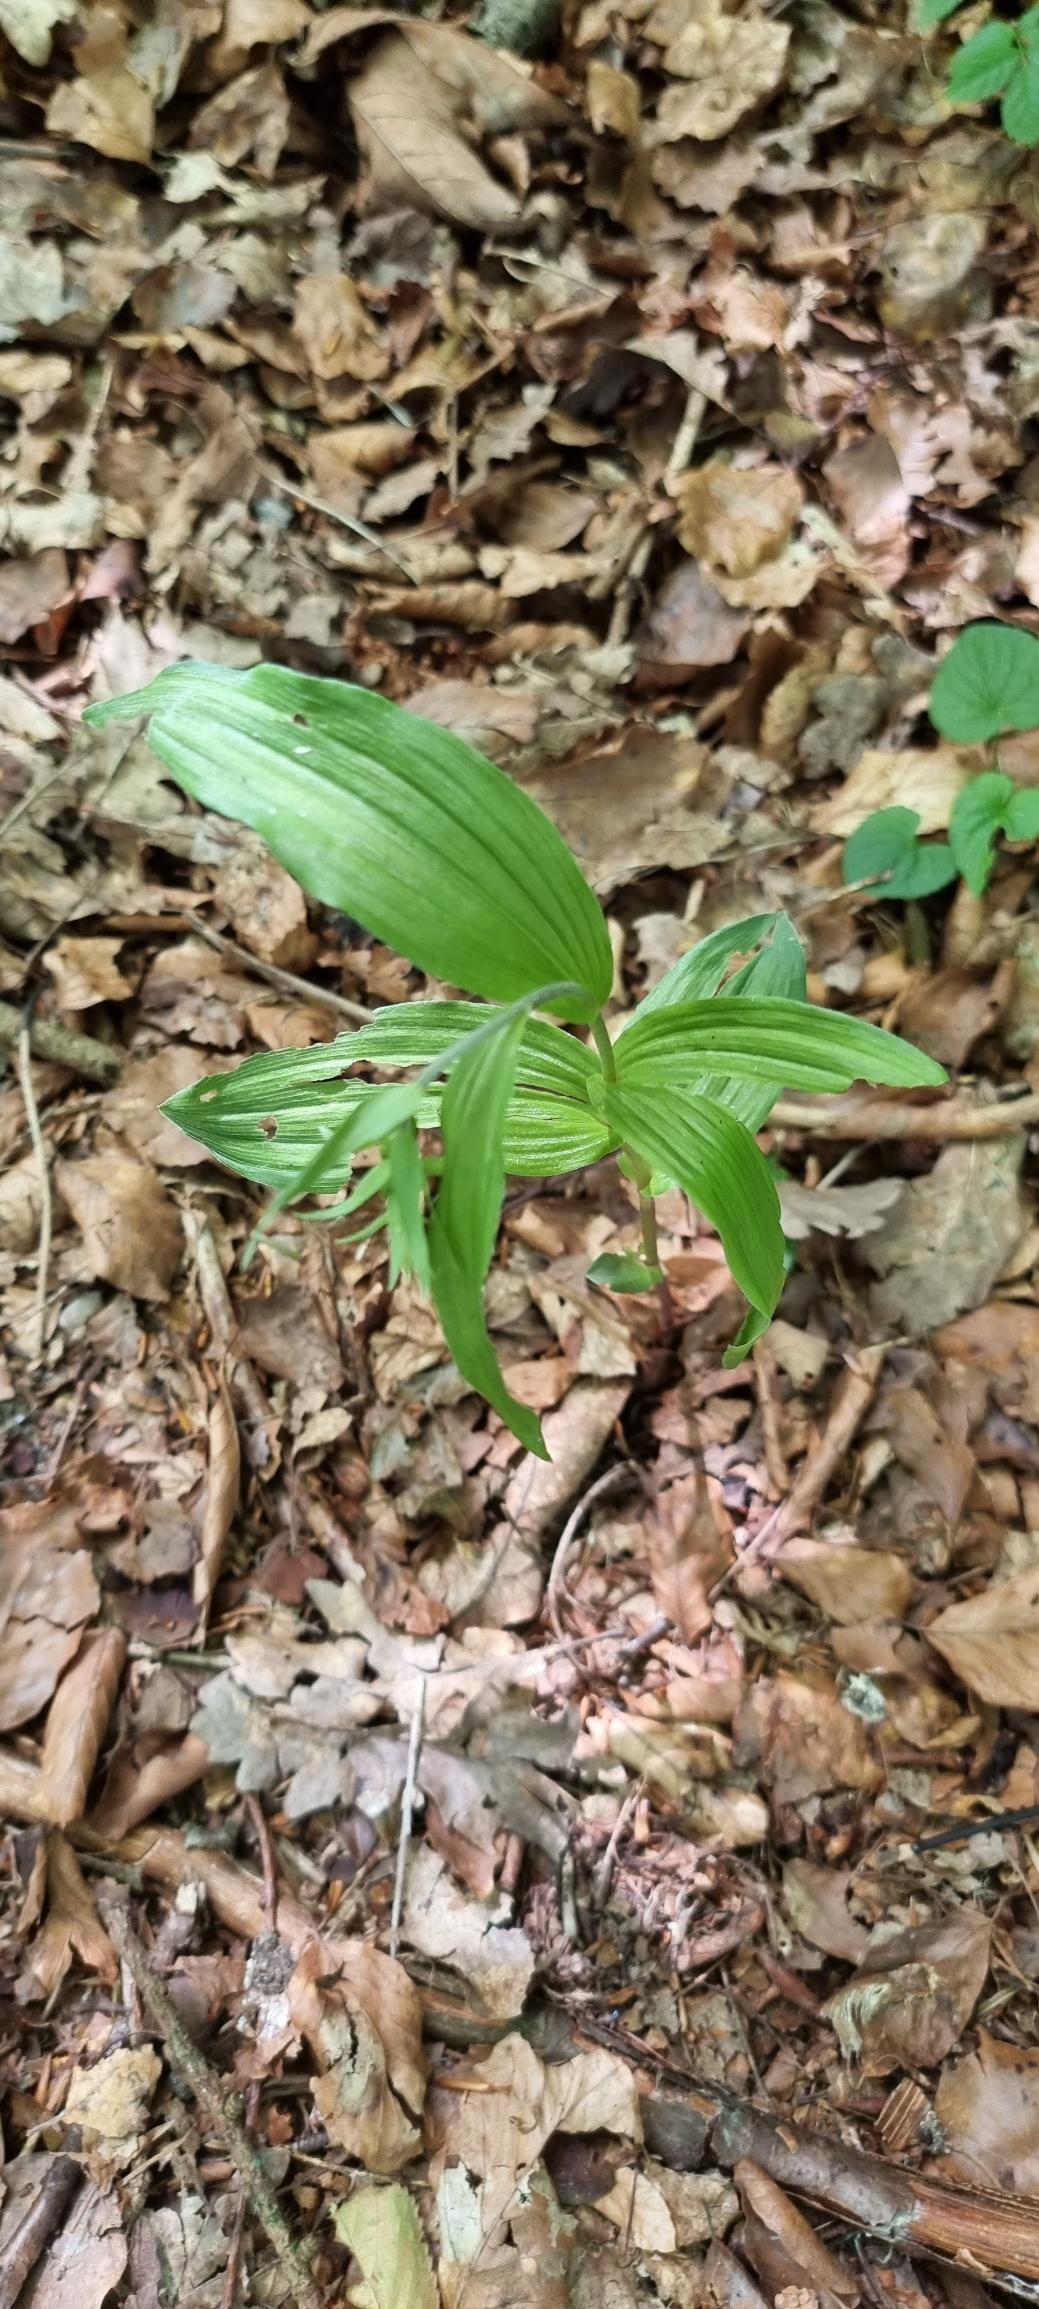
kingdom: Plantae
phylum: Tracheophyta
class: Liliopsida
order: Asparagales
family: Orchidaceae
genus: Epipactis
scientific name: Epipactis helleborine
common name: Skov-hullæbe
